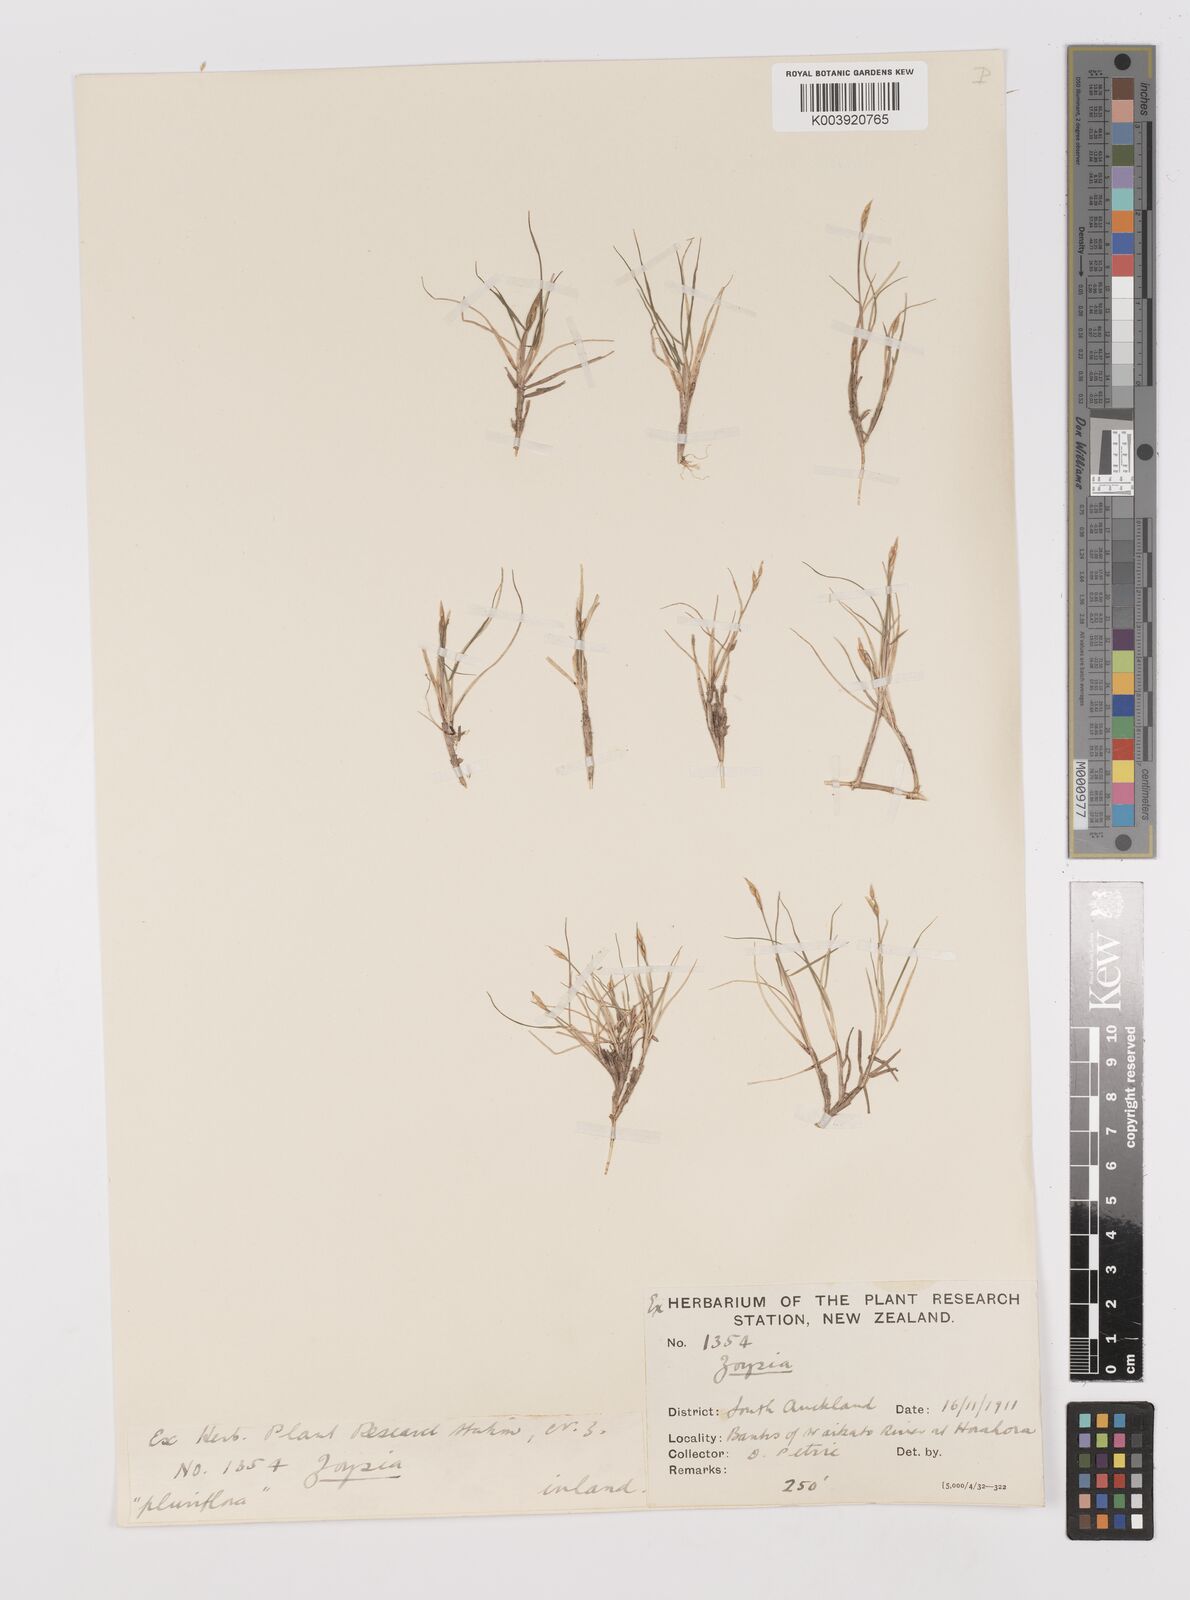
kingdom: Plantae
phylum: Tracheophyta
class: Liliopsida
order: Poales
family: Poaceae
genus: Zoysia
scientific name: Zoysia pauciflora
